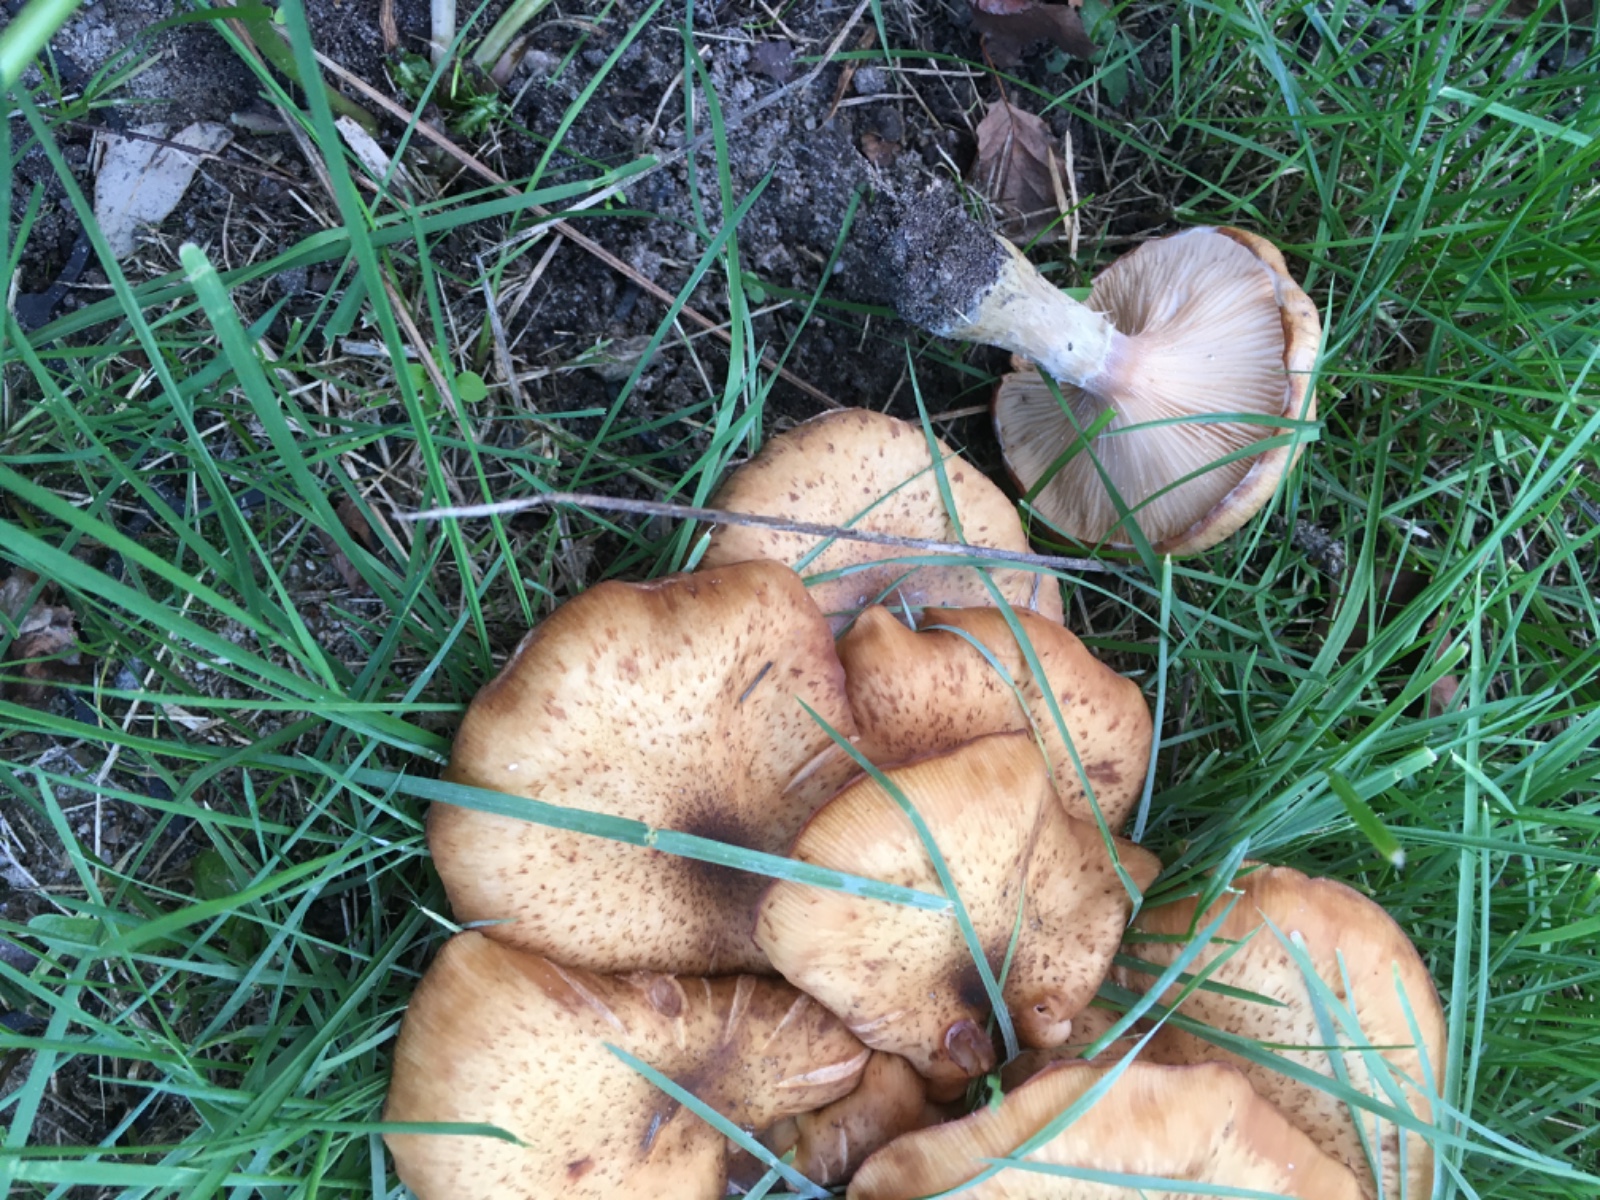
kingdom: Fungi
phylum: Basidiomycota
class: Agaricomycetes
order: Agaricales
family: Physalacriaceae
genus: Armillaria
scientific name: Armillaria lutea
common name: køllestokket honningsvamp
